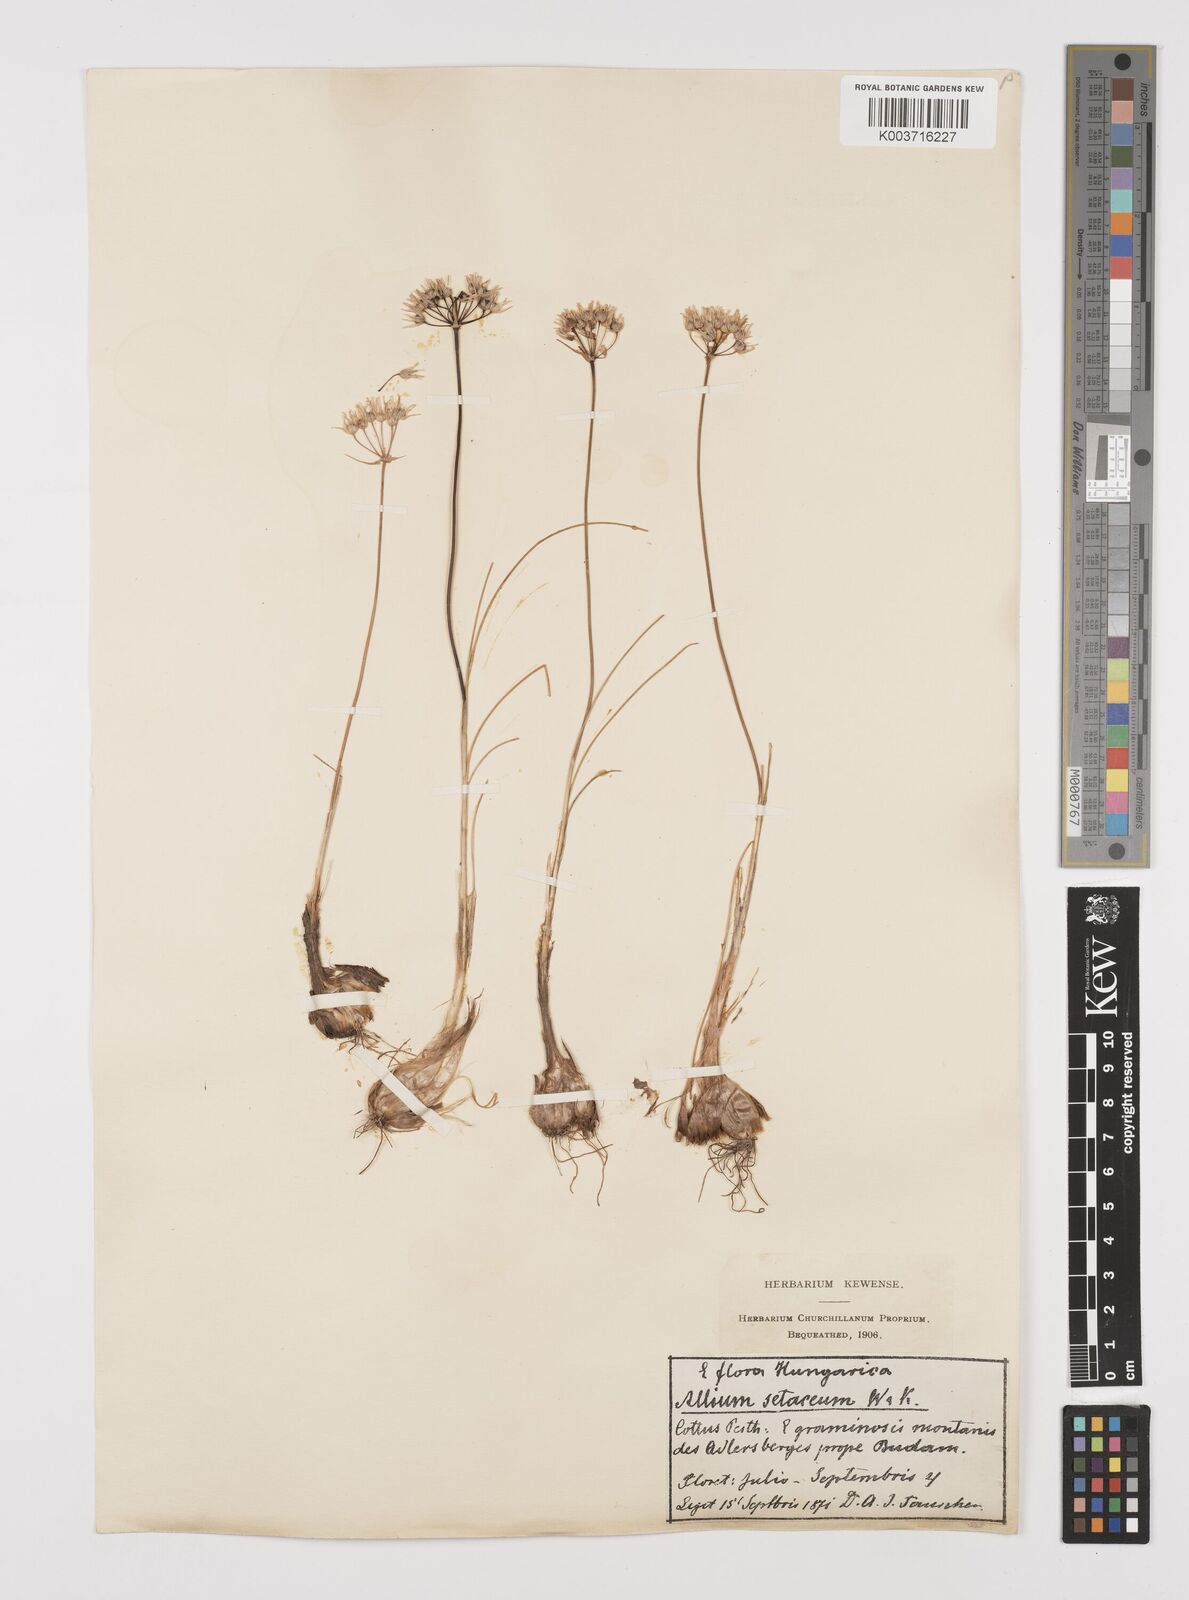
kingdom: Plantae
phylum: Tracheophyta
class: Liliopsida
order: Asparagales
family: Amaryllidaceae
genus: Allium
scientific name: Allium moschatum
